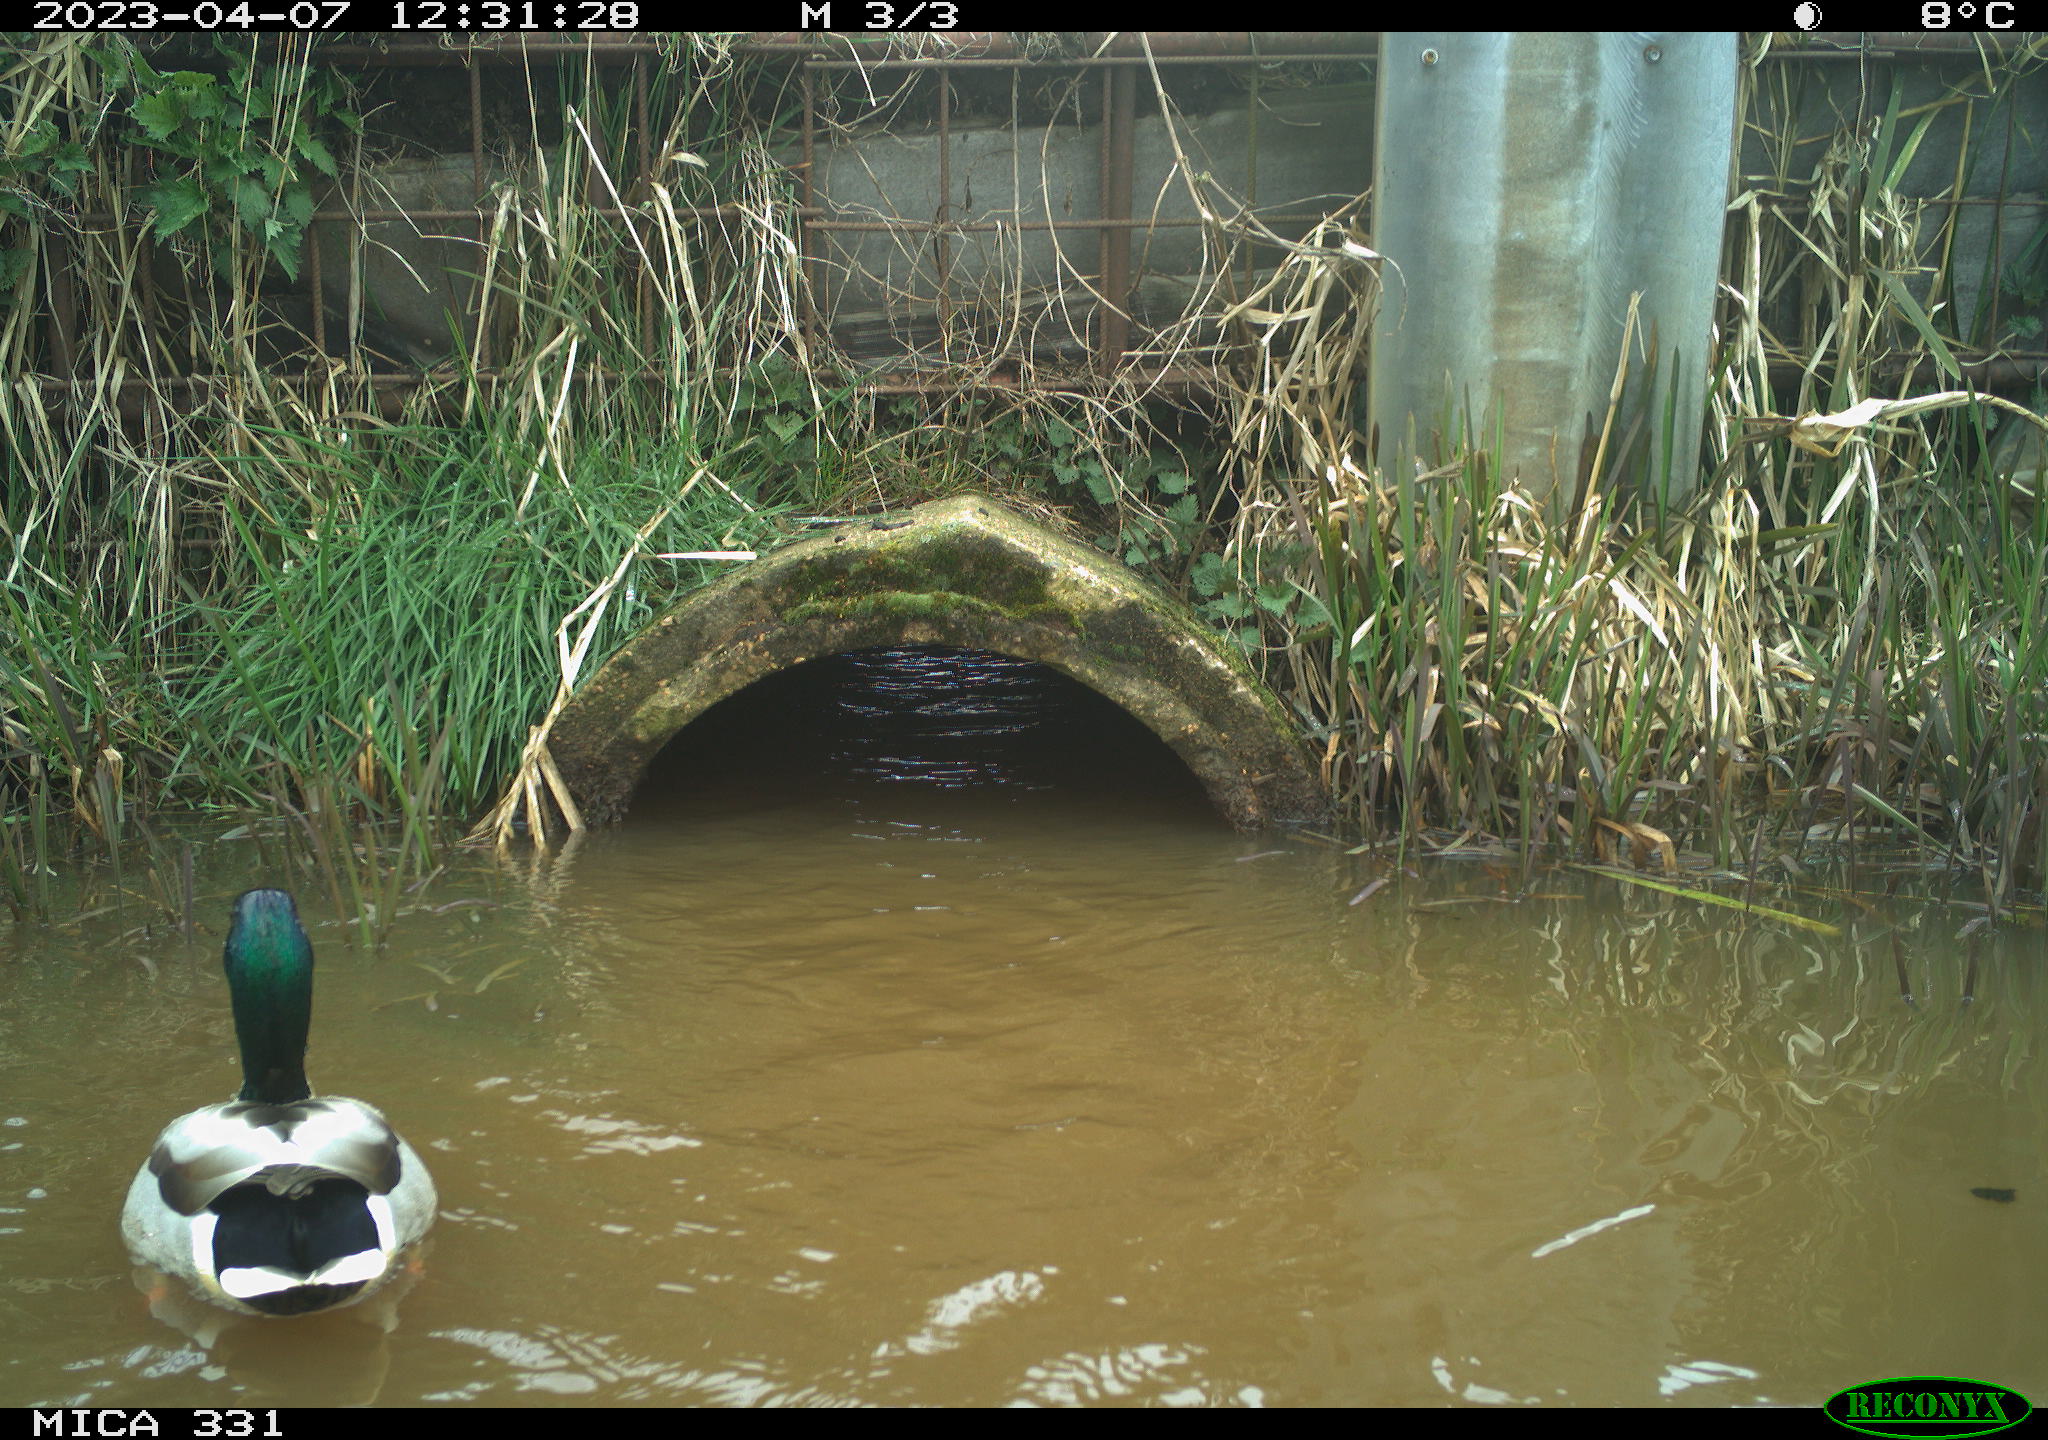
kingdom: Animalia
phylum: Chordata
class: Aves
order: Anseriformes
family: Anatidae
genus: Anas
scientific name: Anas platyrhynchos
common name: Mallard
